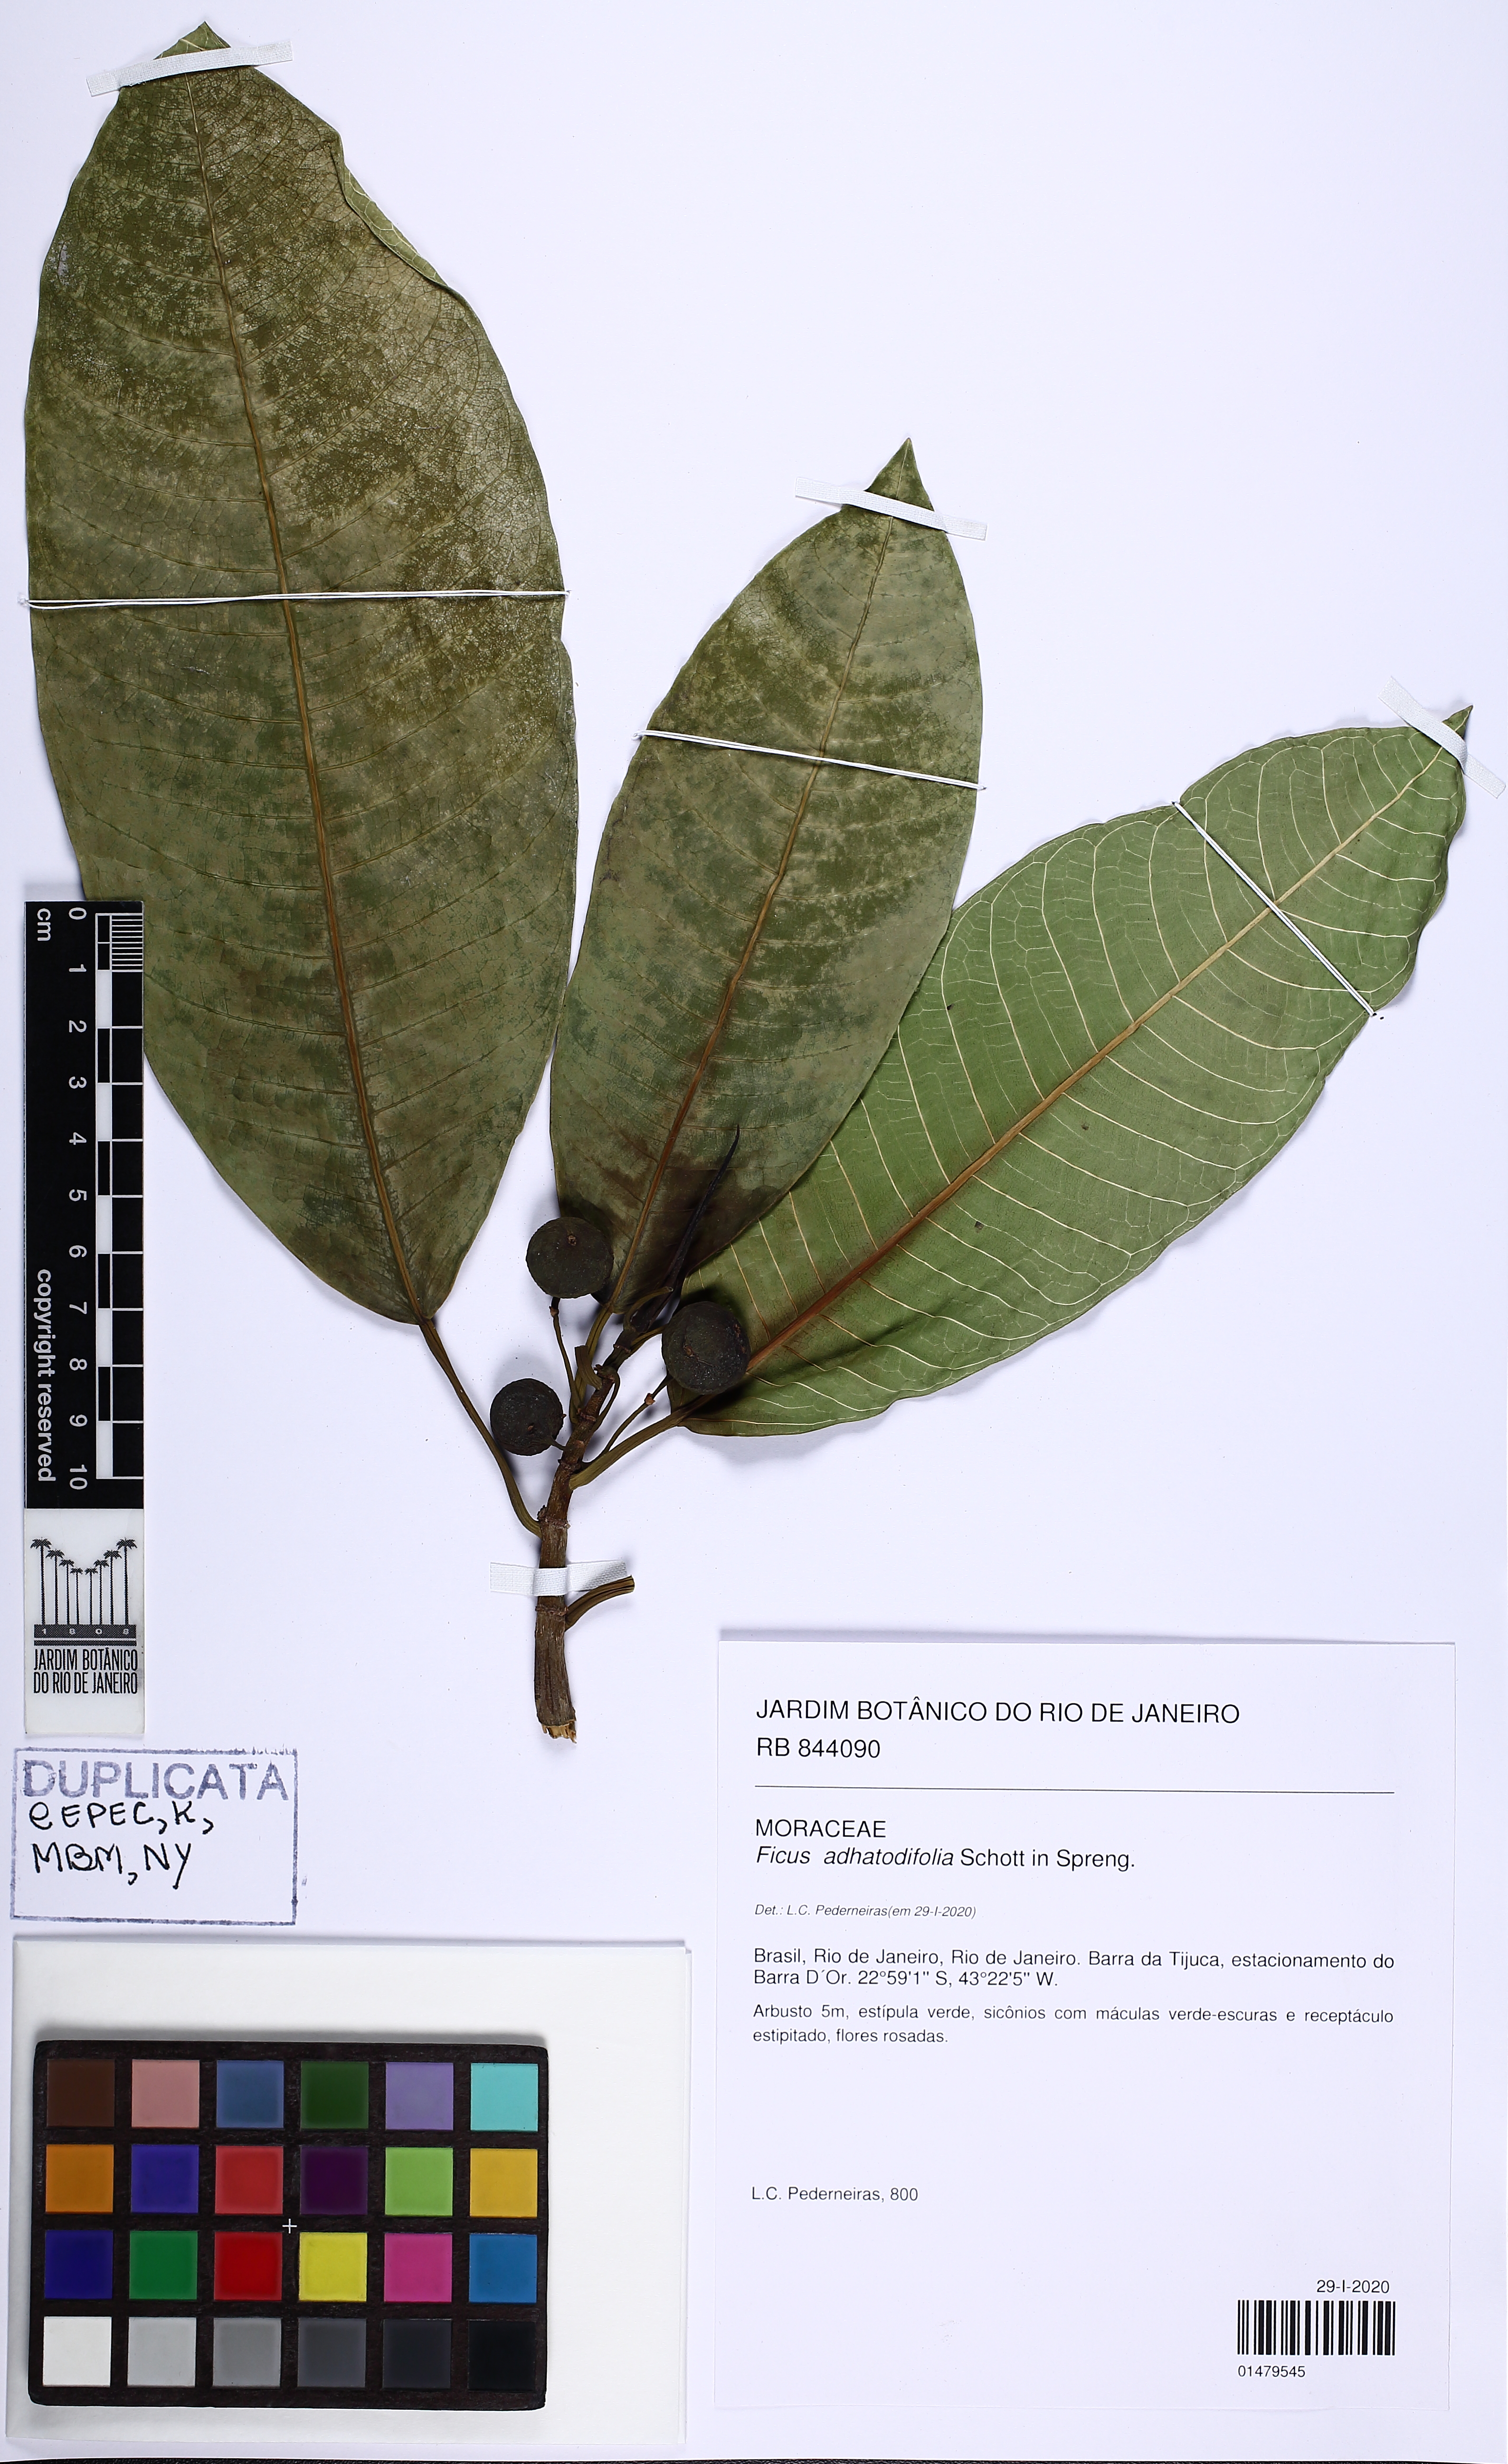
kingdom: Plantae
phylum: Tracheophyta
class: Magnoliopsida
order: Rosales
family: Moraceae
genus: Ficus
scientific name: Ficus adhatodifolia
